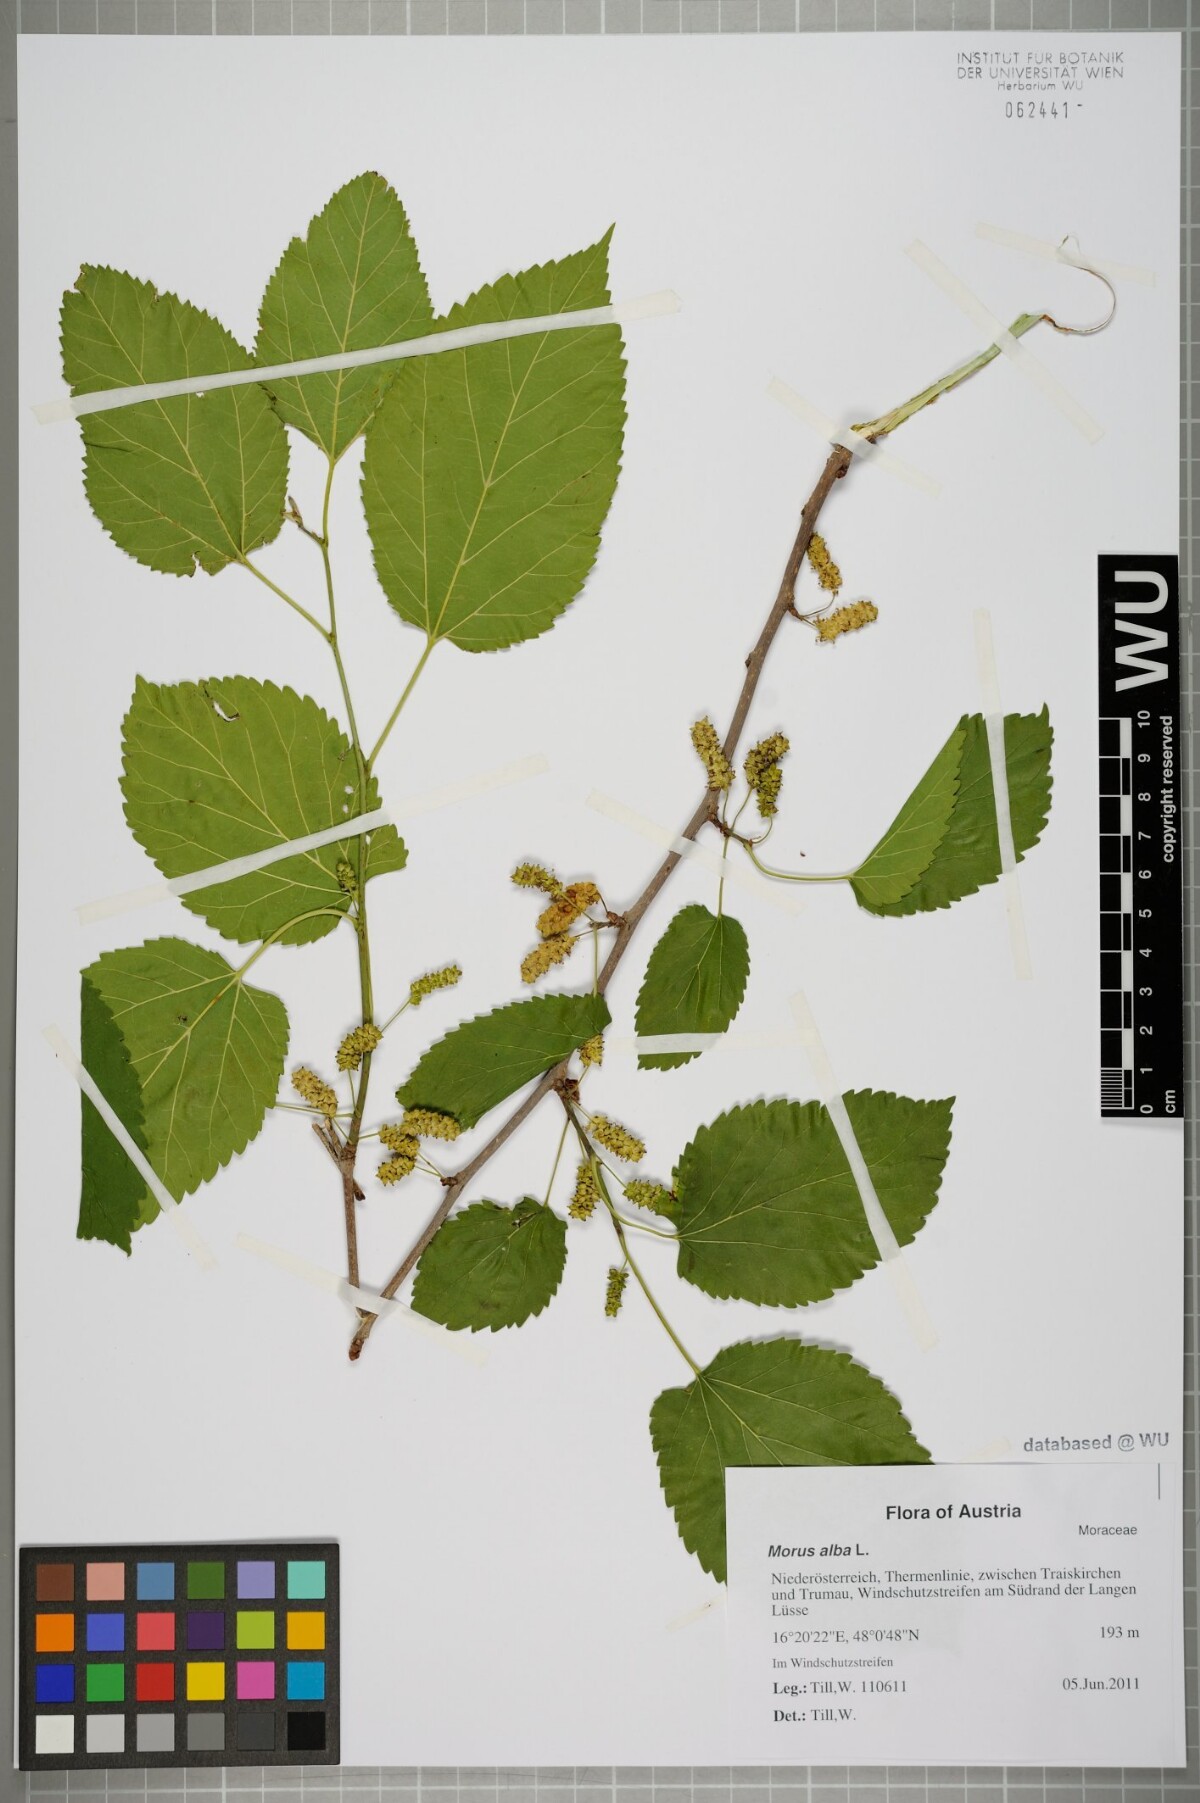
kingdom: Plantae
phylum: Tracheophyta
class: Magnoliopsida
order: Rosales
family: Moraceae
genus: Morus
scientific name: Morus alba
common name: White mulberry
